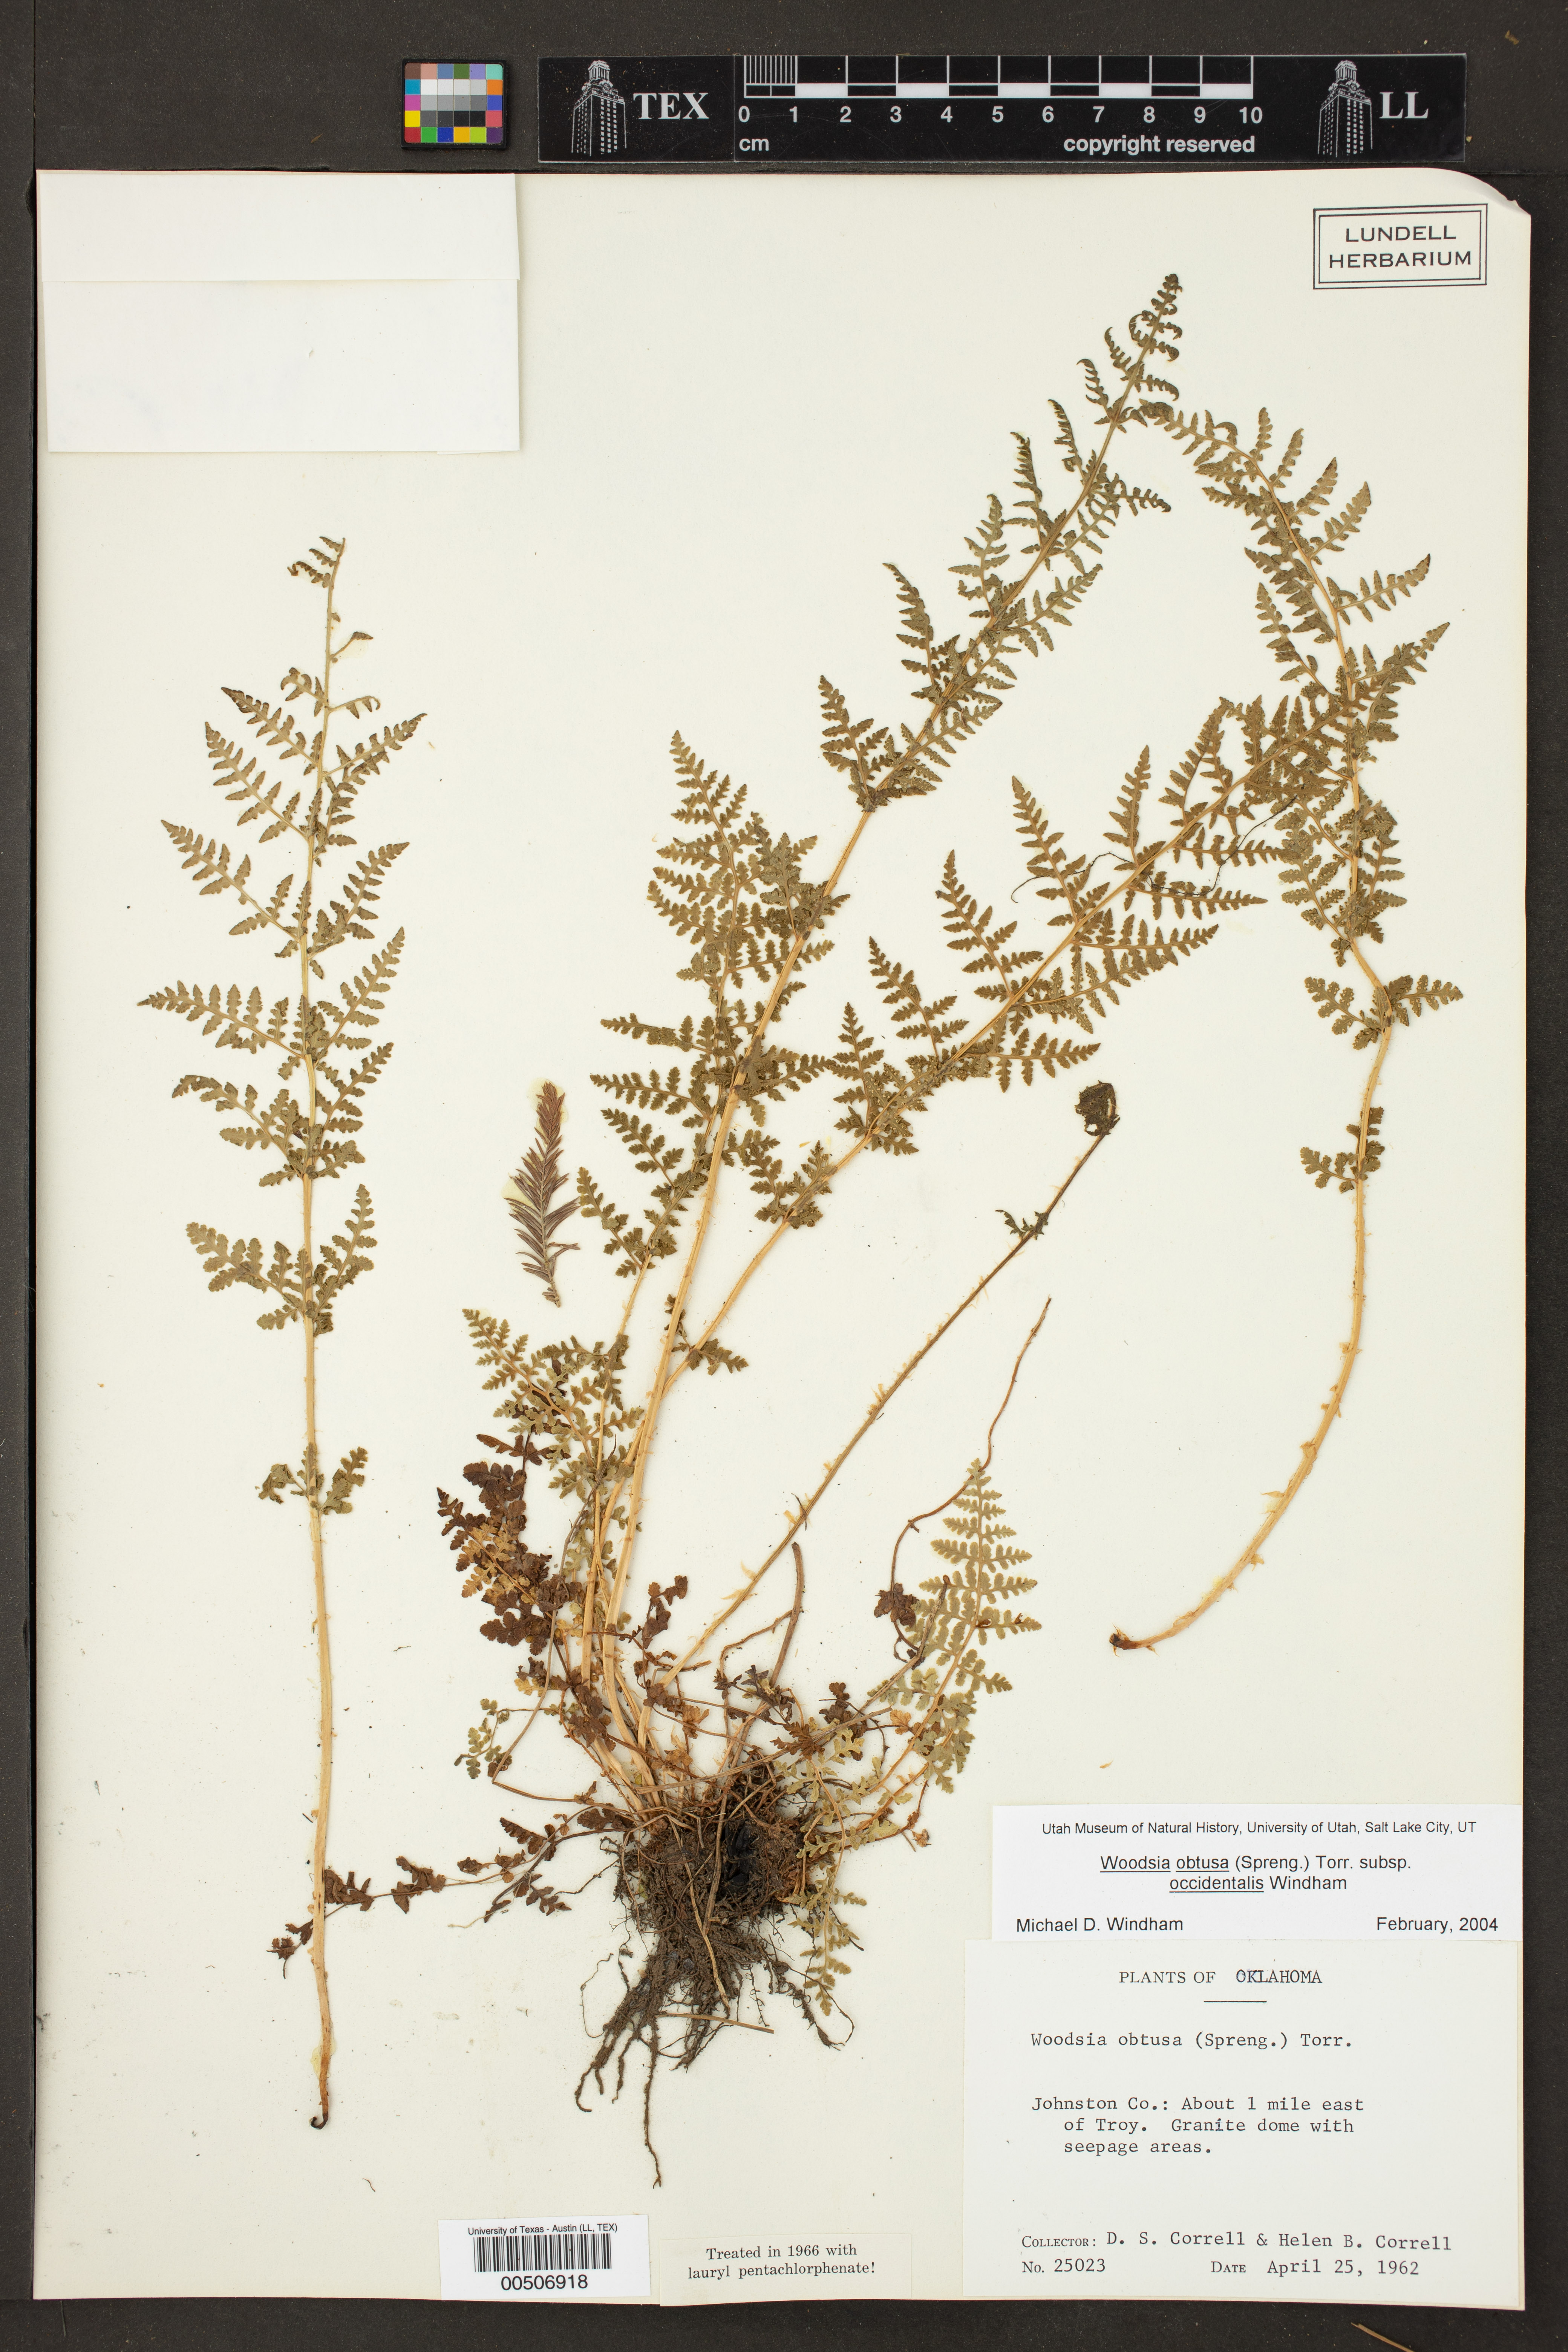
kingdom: Plantae
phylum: Tracheophyta
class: Polypodiopsida
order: Polypodiales
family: Woodsiaceae
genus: Physematium
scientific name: Physematium obtusum
